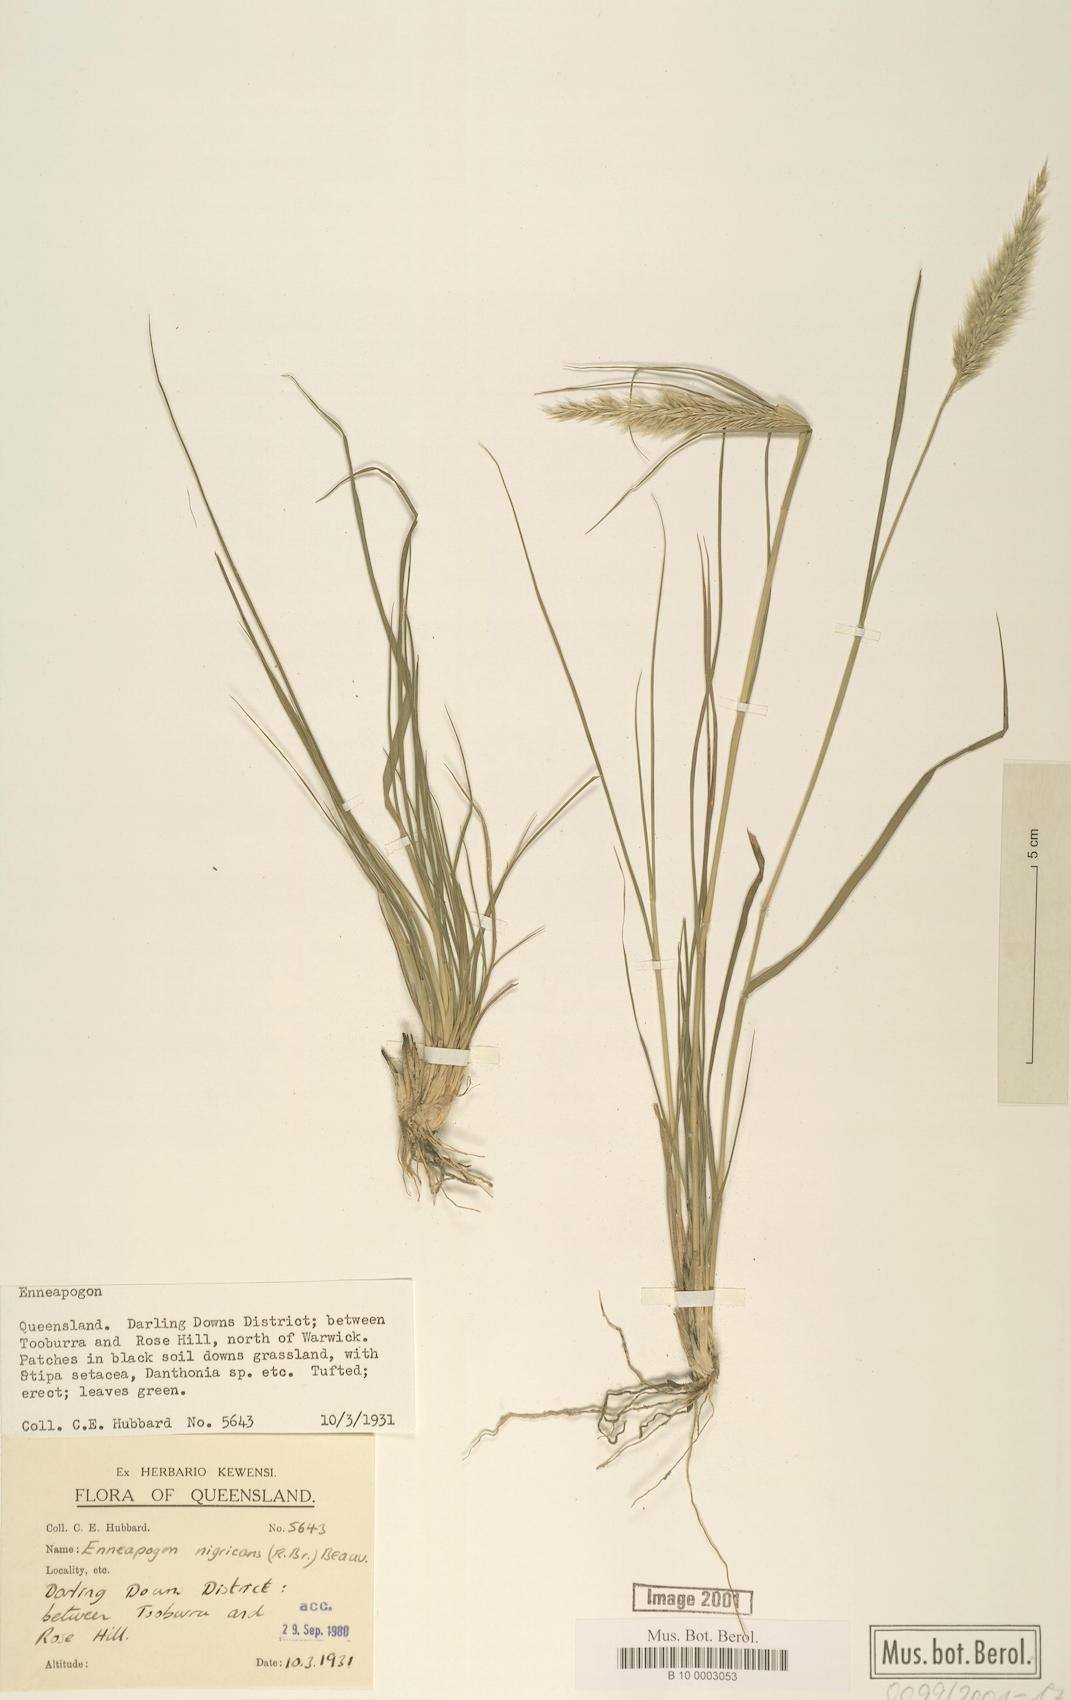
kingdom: Plantae
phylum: Tracheophyta
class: Liliopsida
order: Poales
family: Poaceae
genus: Enneapogon
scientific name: Enneapogon nigricans
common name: Pappus grass
